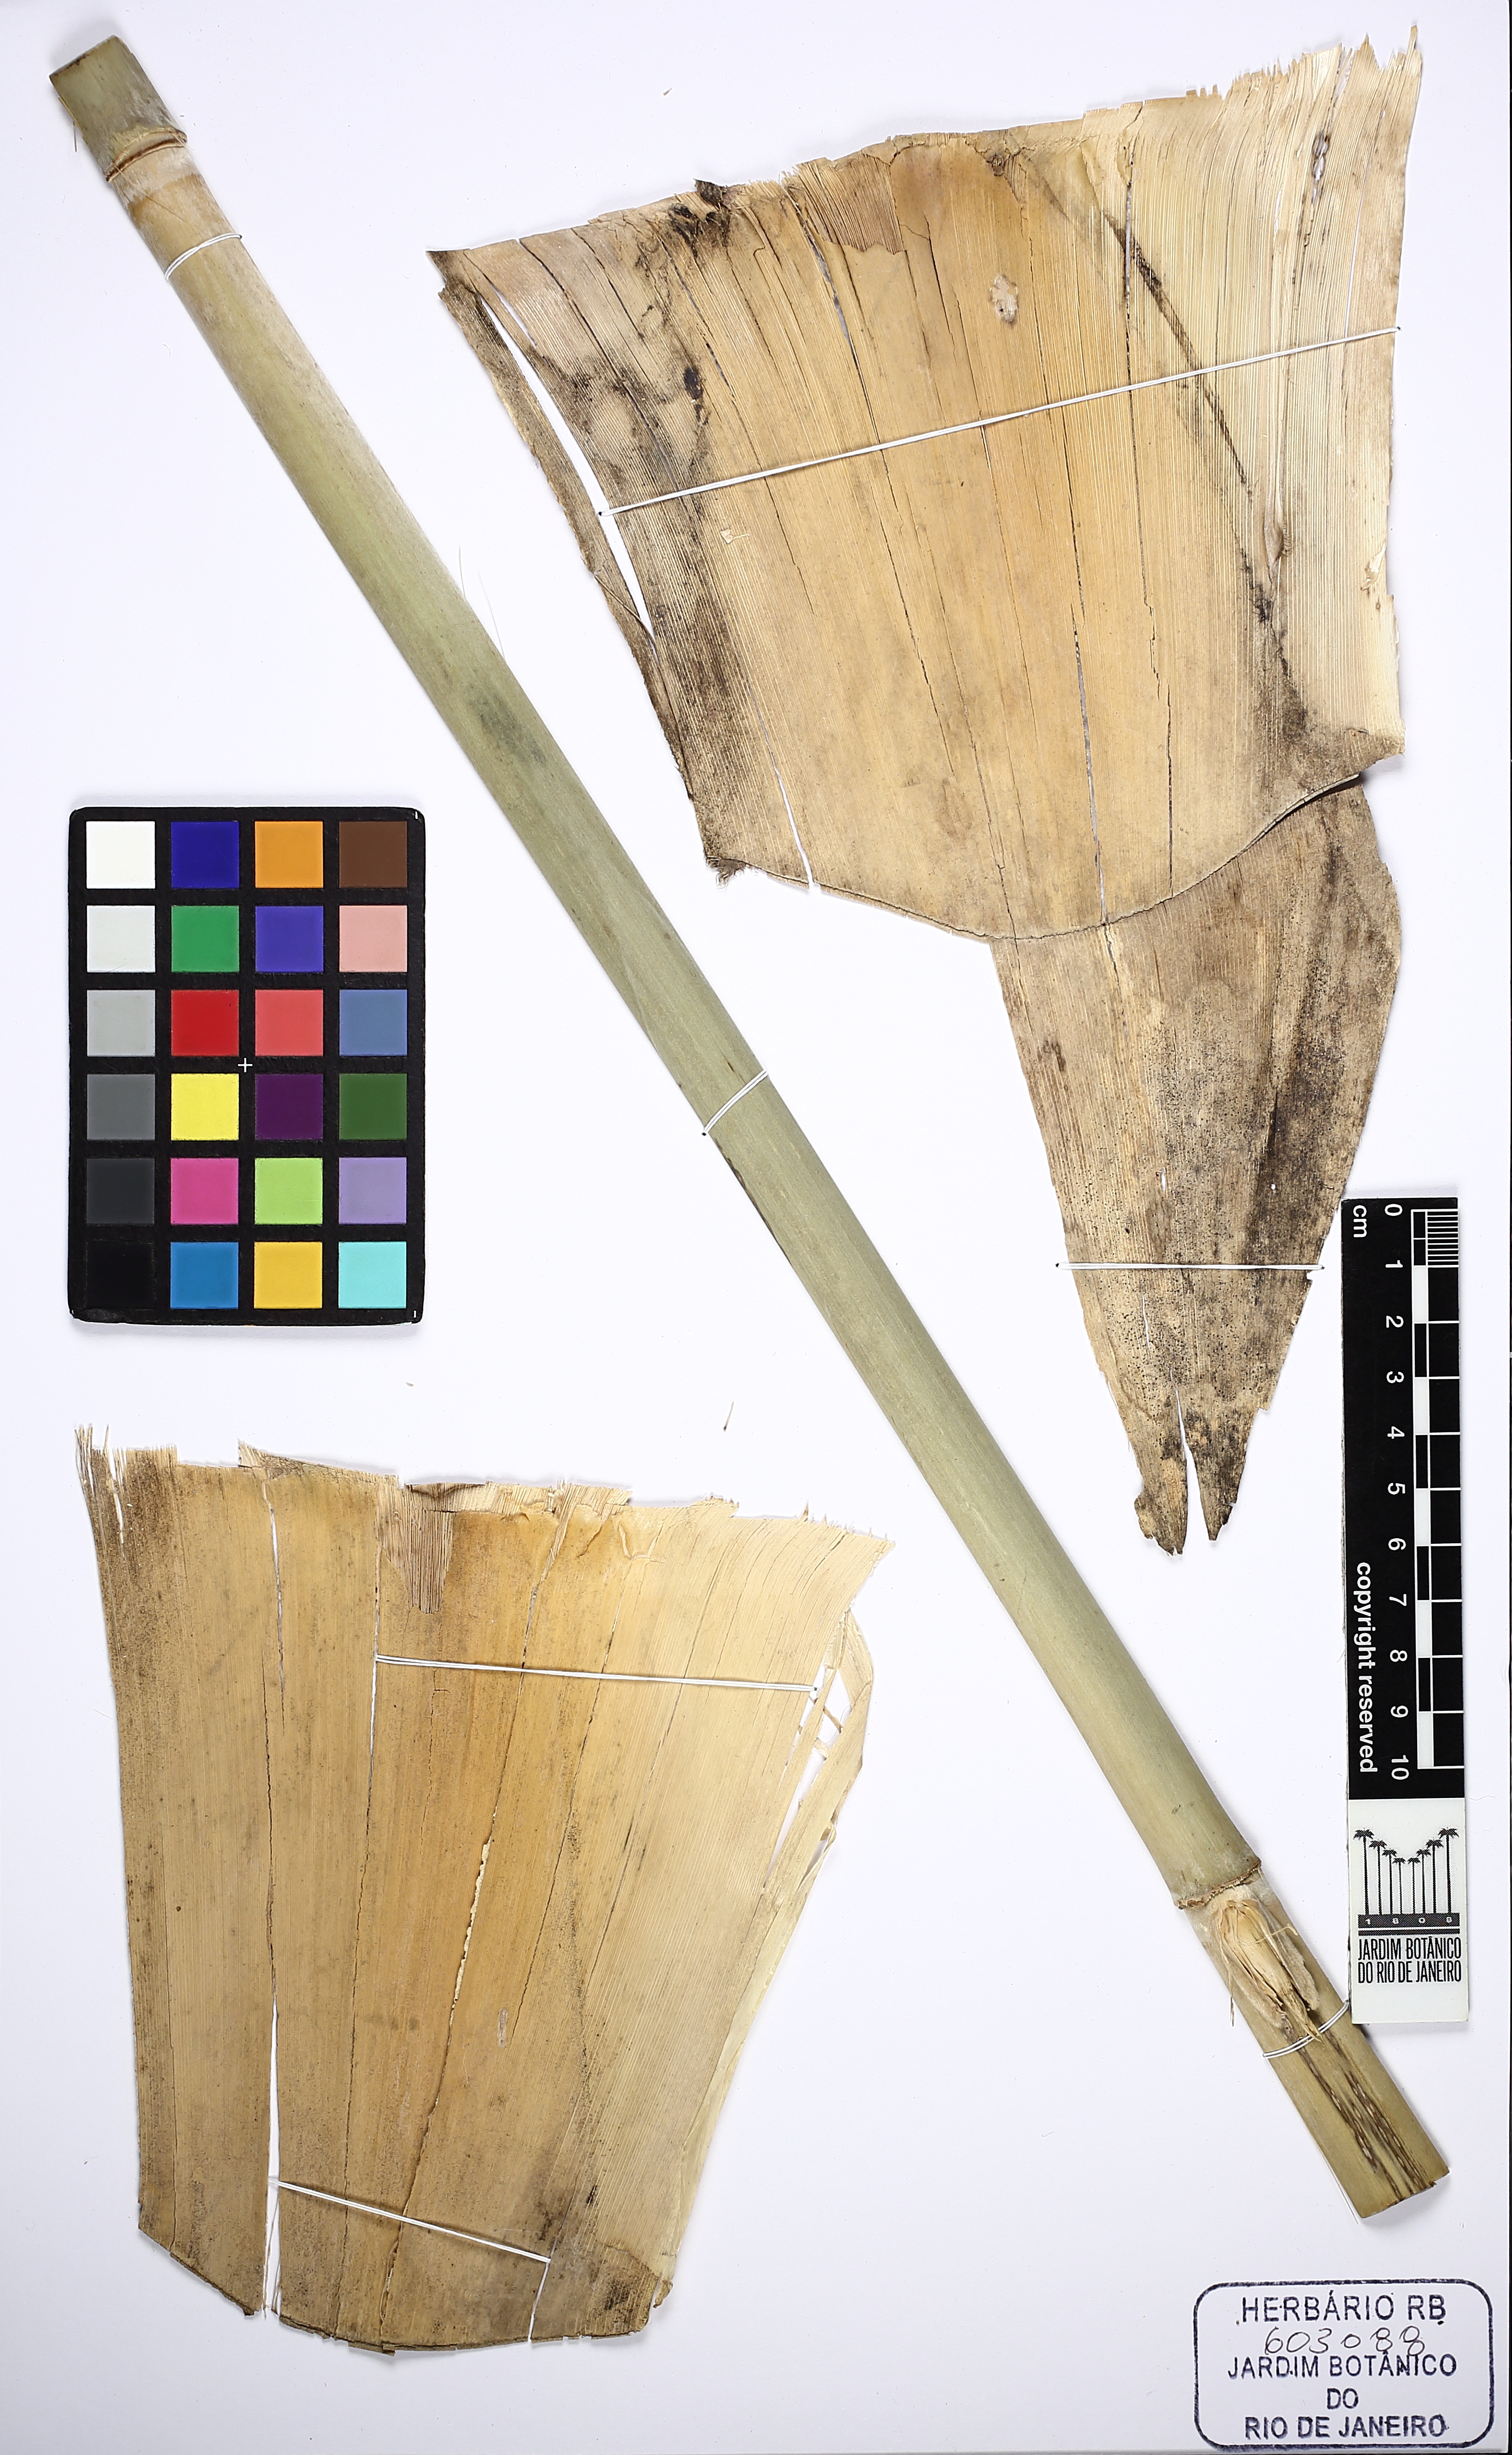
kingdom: Plantae
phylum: Tracheophyta
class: Liliopsida
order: Poales
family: Poaceae
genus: Guadua
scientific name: Guadua paniculata
